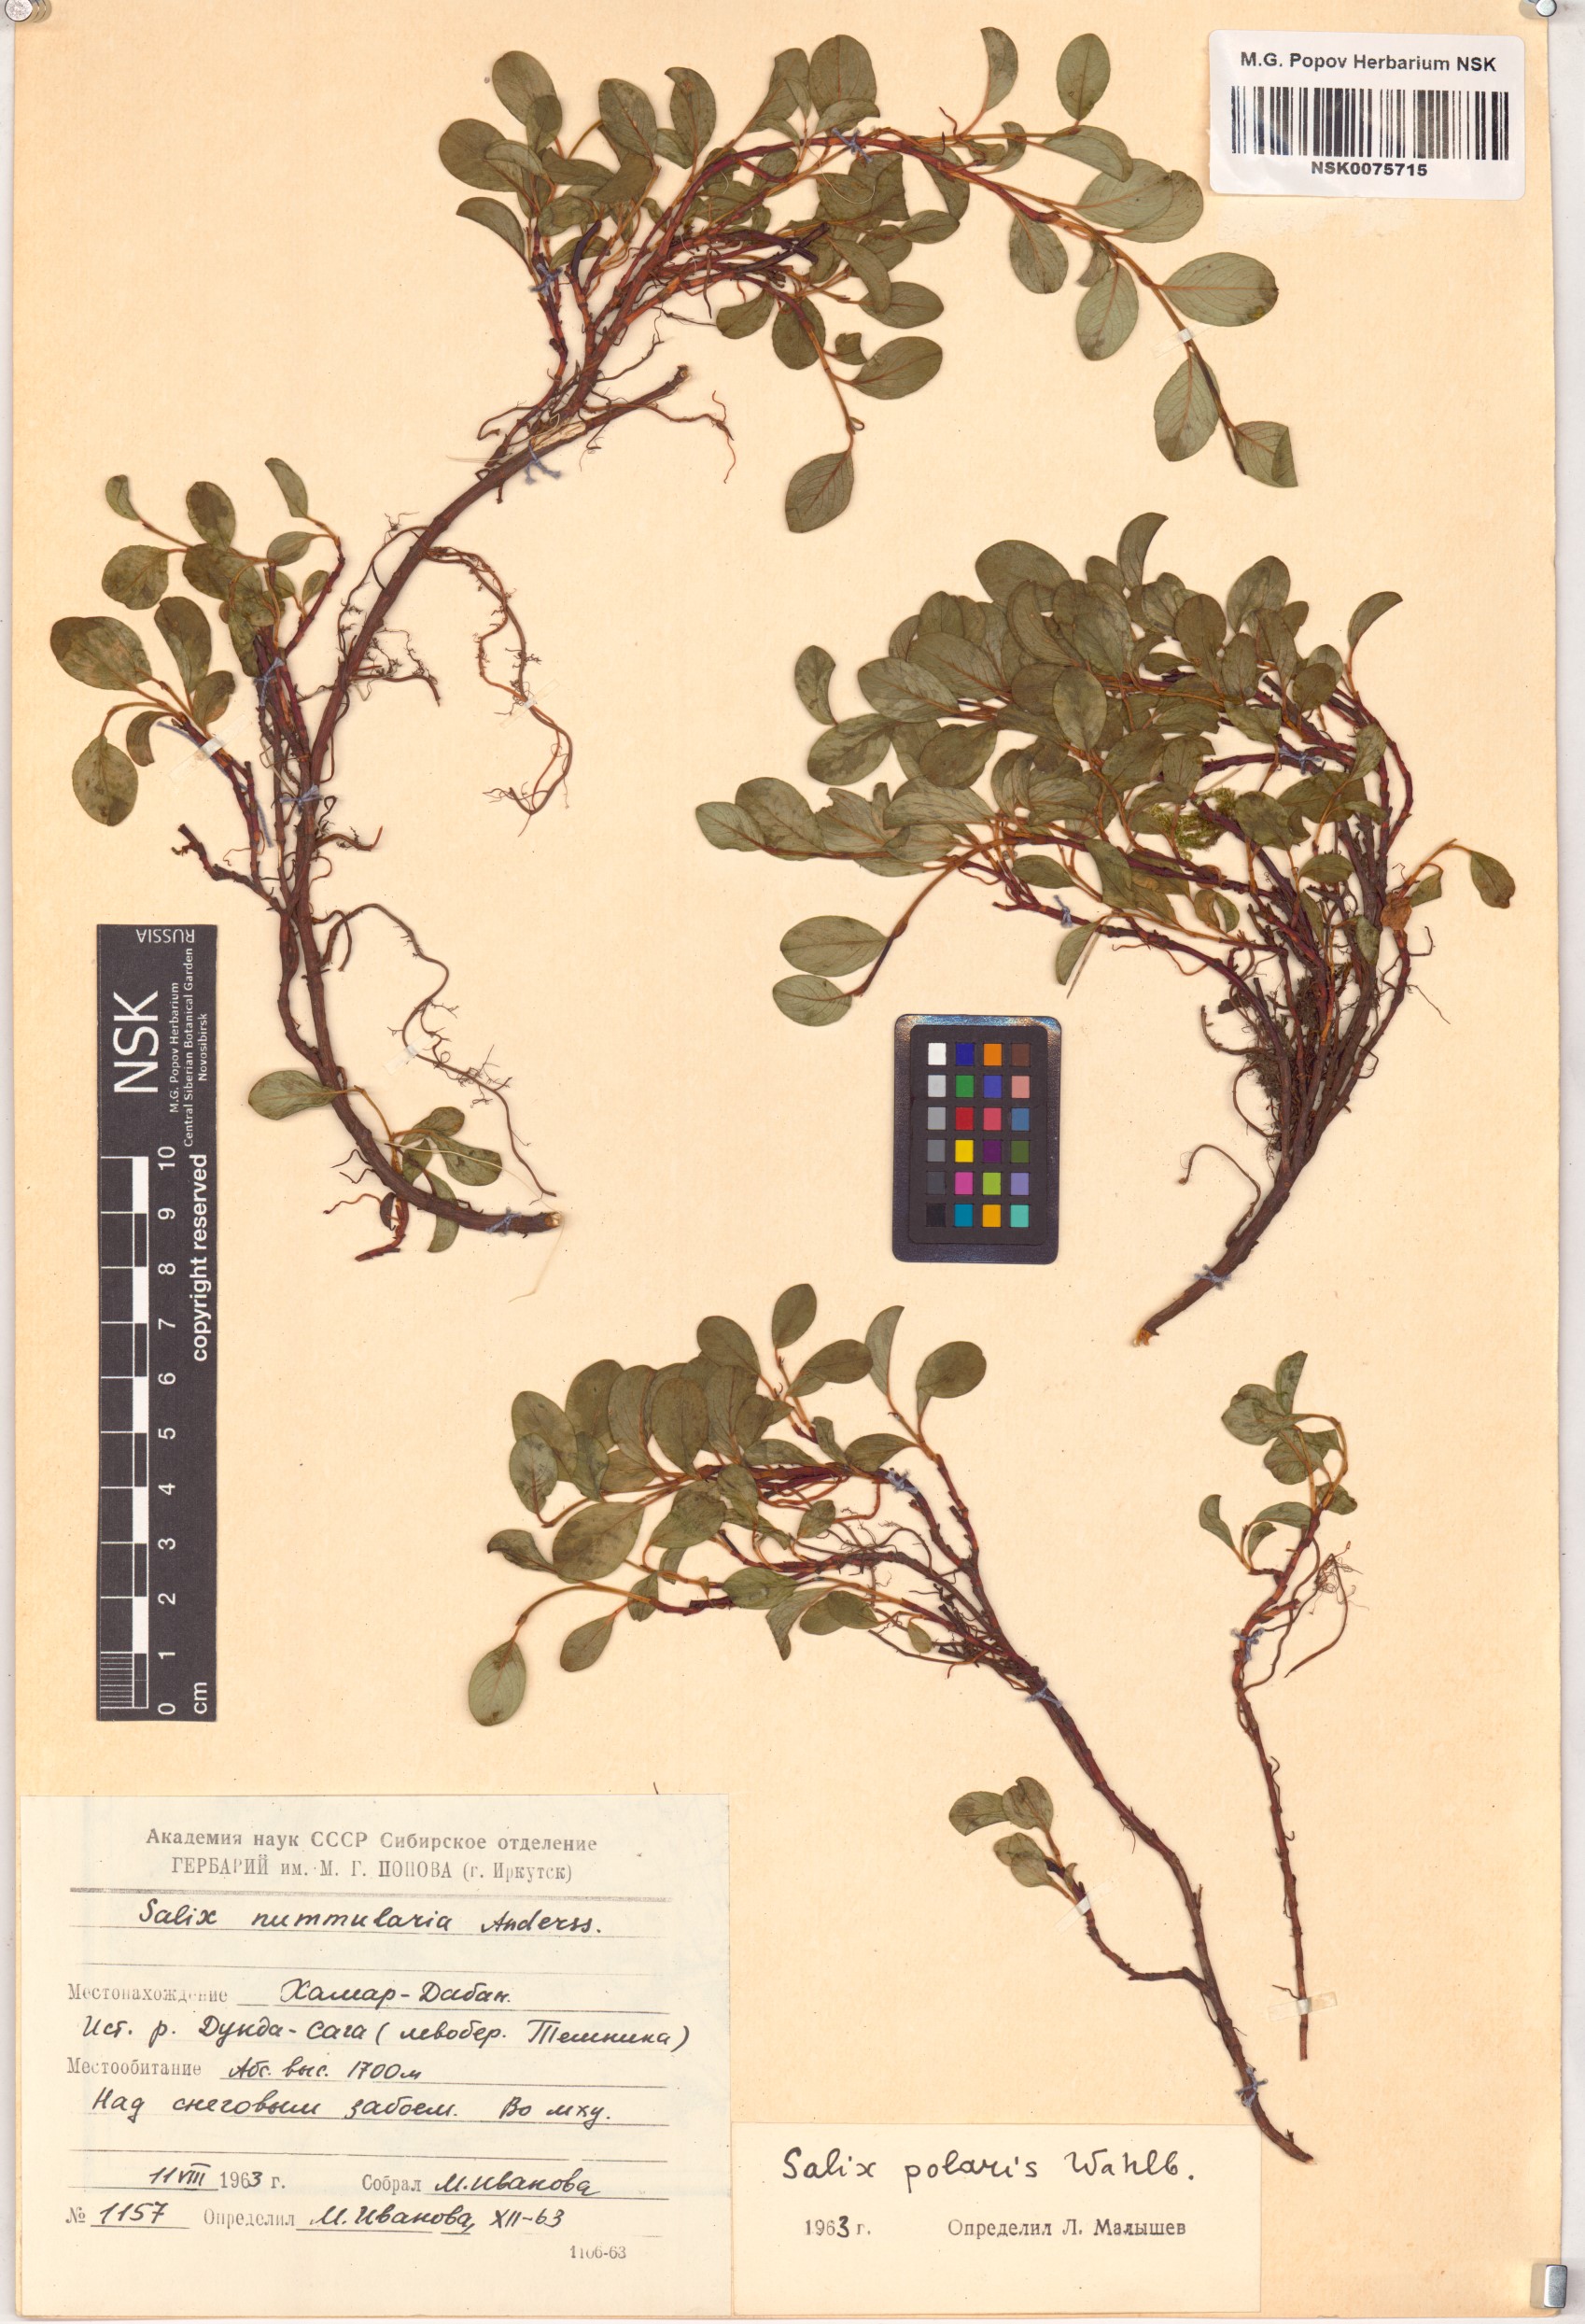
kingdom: Plantae
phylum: Tracheophyta
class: Magnoliopsida
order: Malpighiales
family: Salicaceae
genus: Salix
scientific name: Salix polaris
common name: Polar willow
